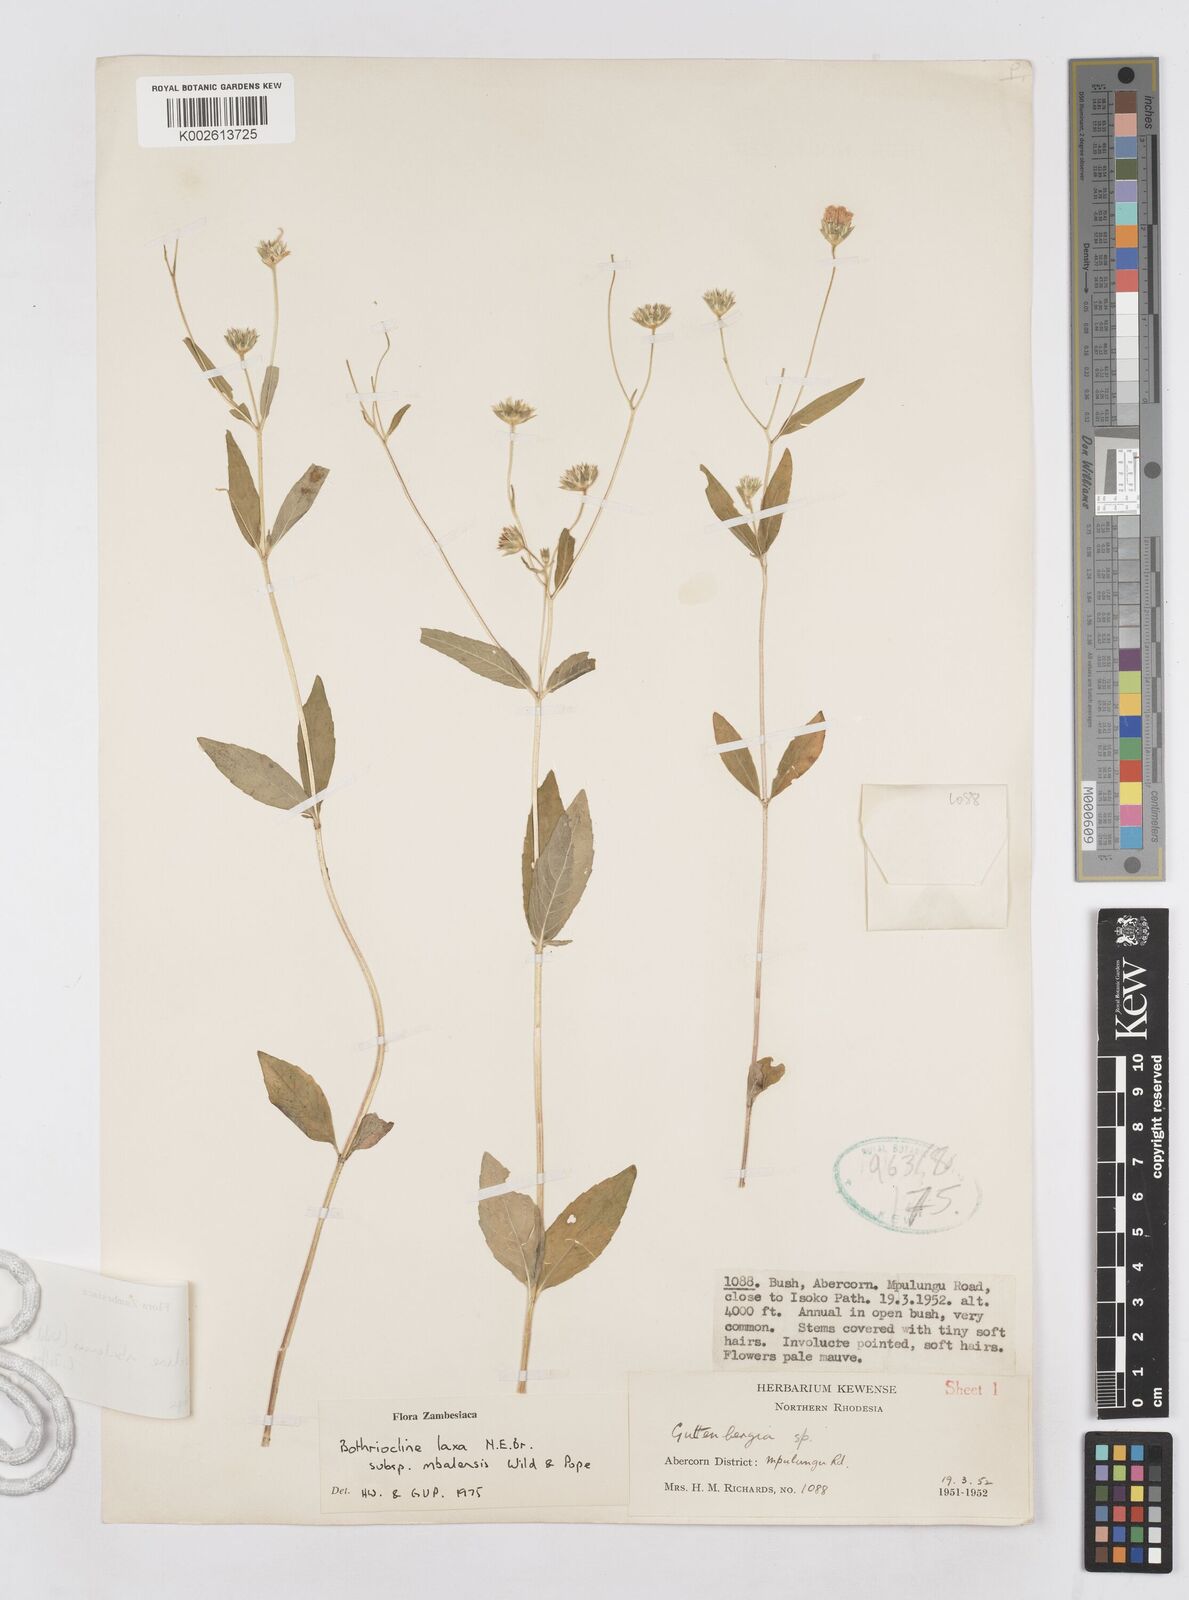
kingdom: Plantae
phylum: Tracheophyta
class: Magnoliopsida
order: Asterales
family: Asteraceae
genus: Bothriocline
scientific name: Bothriocline mbalensis
